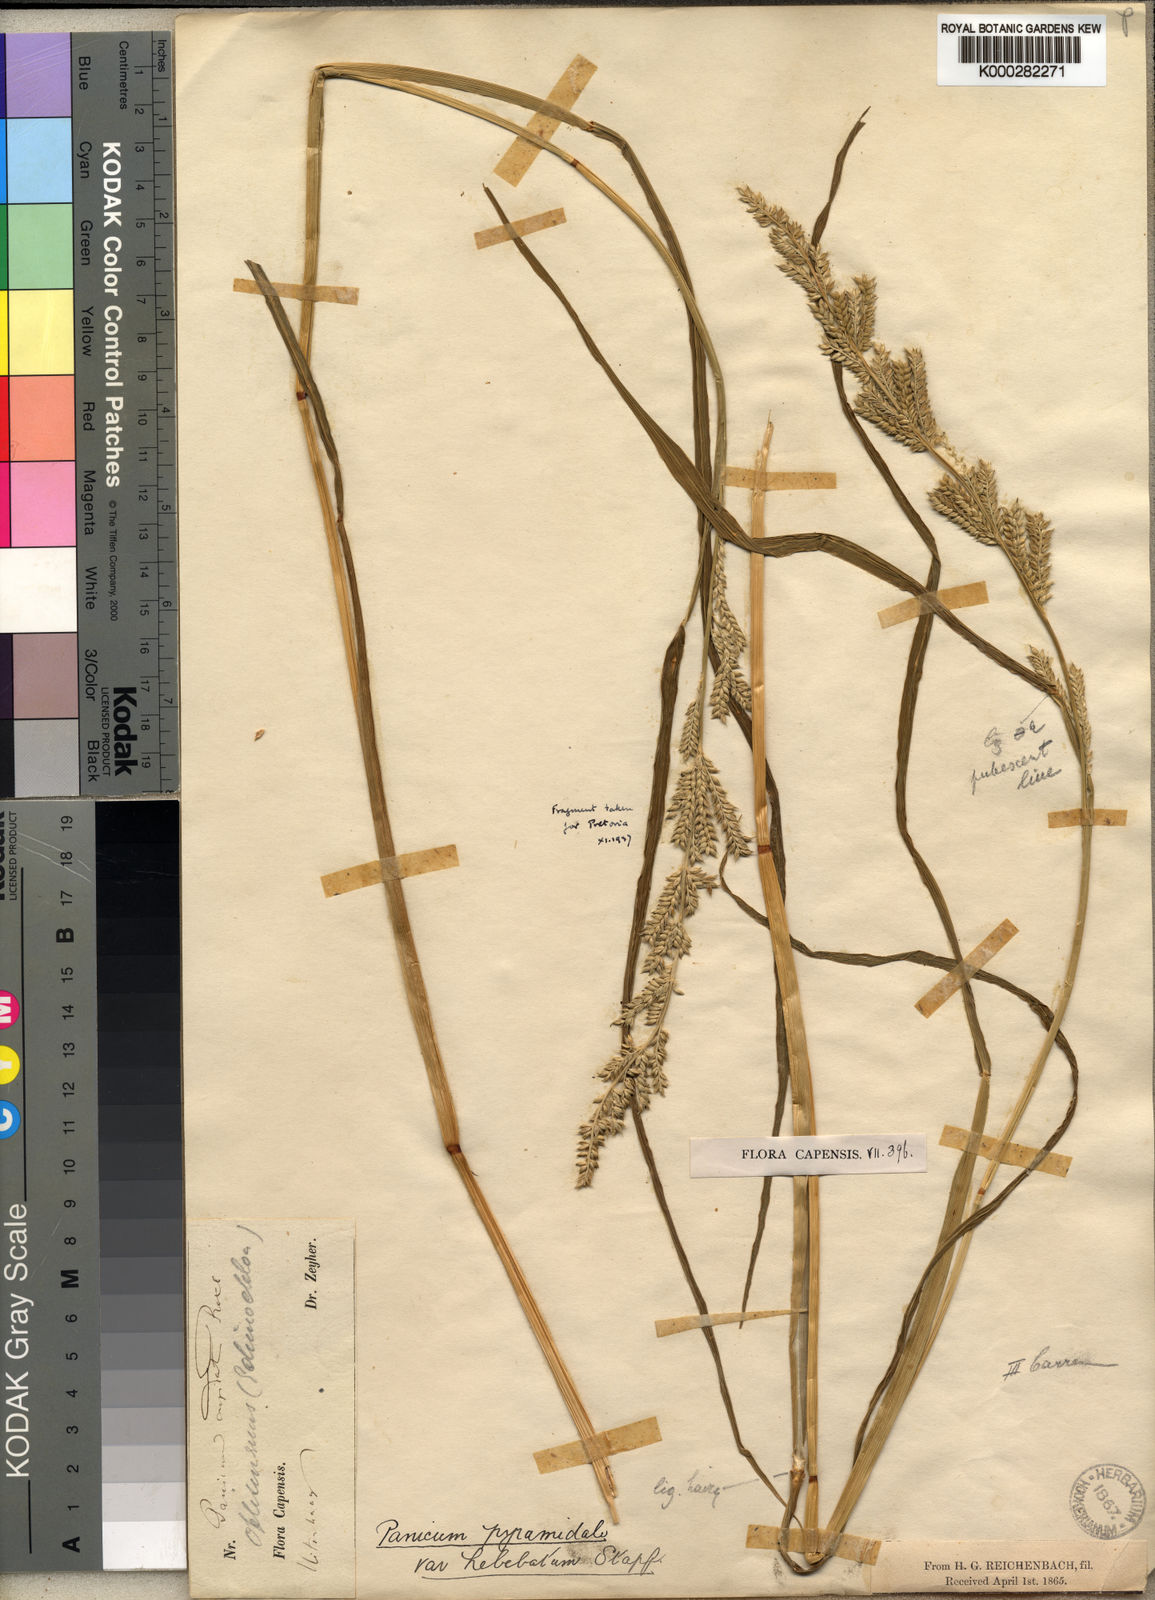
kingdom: Plantae
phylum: Tracheophyta
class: Liliopsida
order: Poales
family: Poaceae
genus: Echinochloa
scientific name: Echinochloa pyramidalis
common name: Antelope grass
